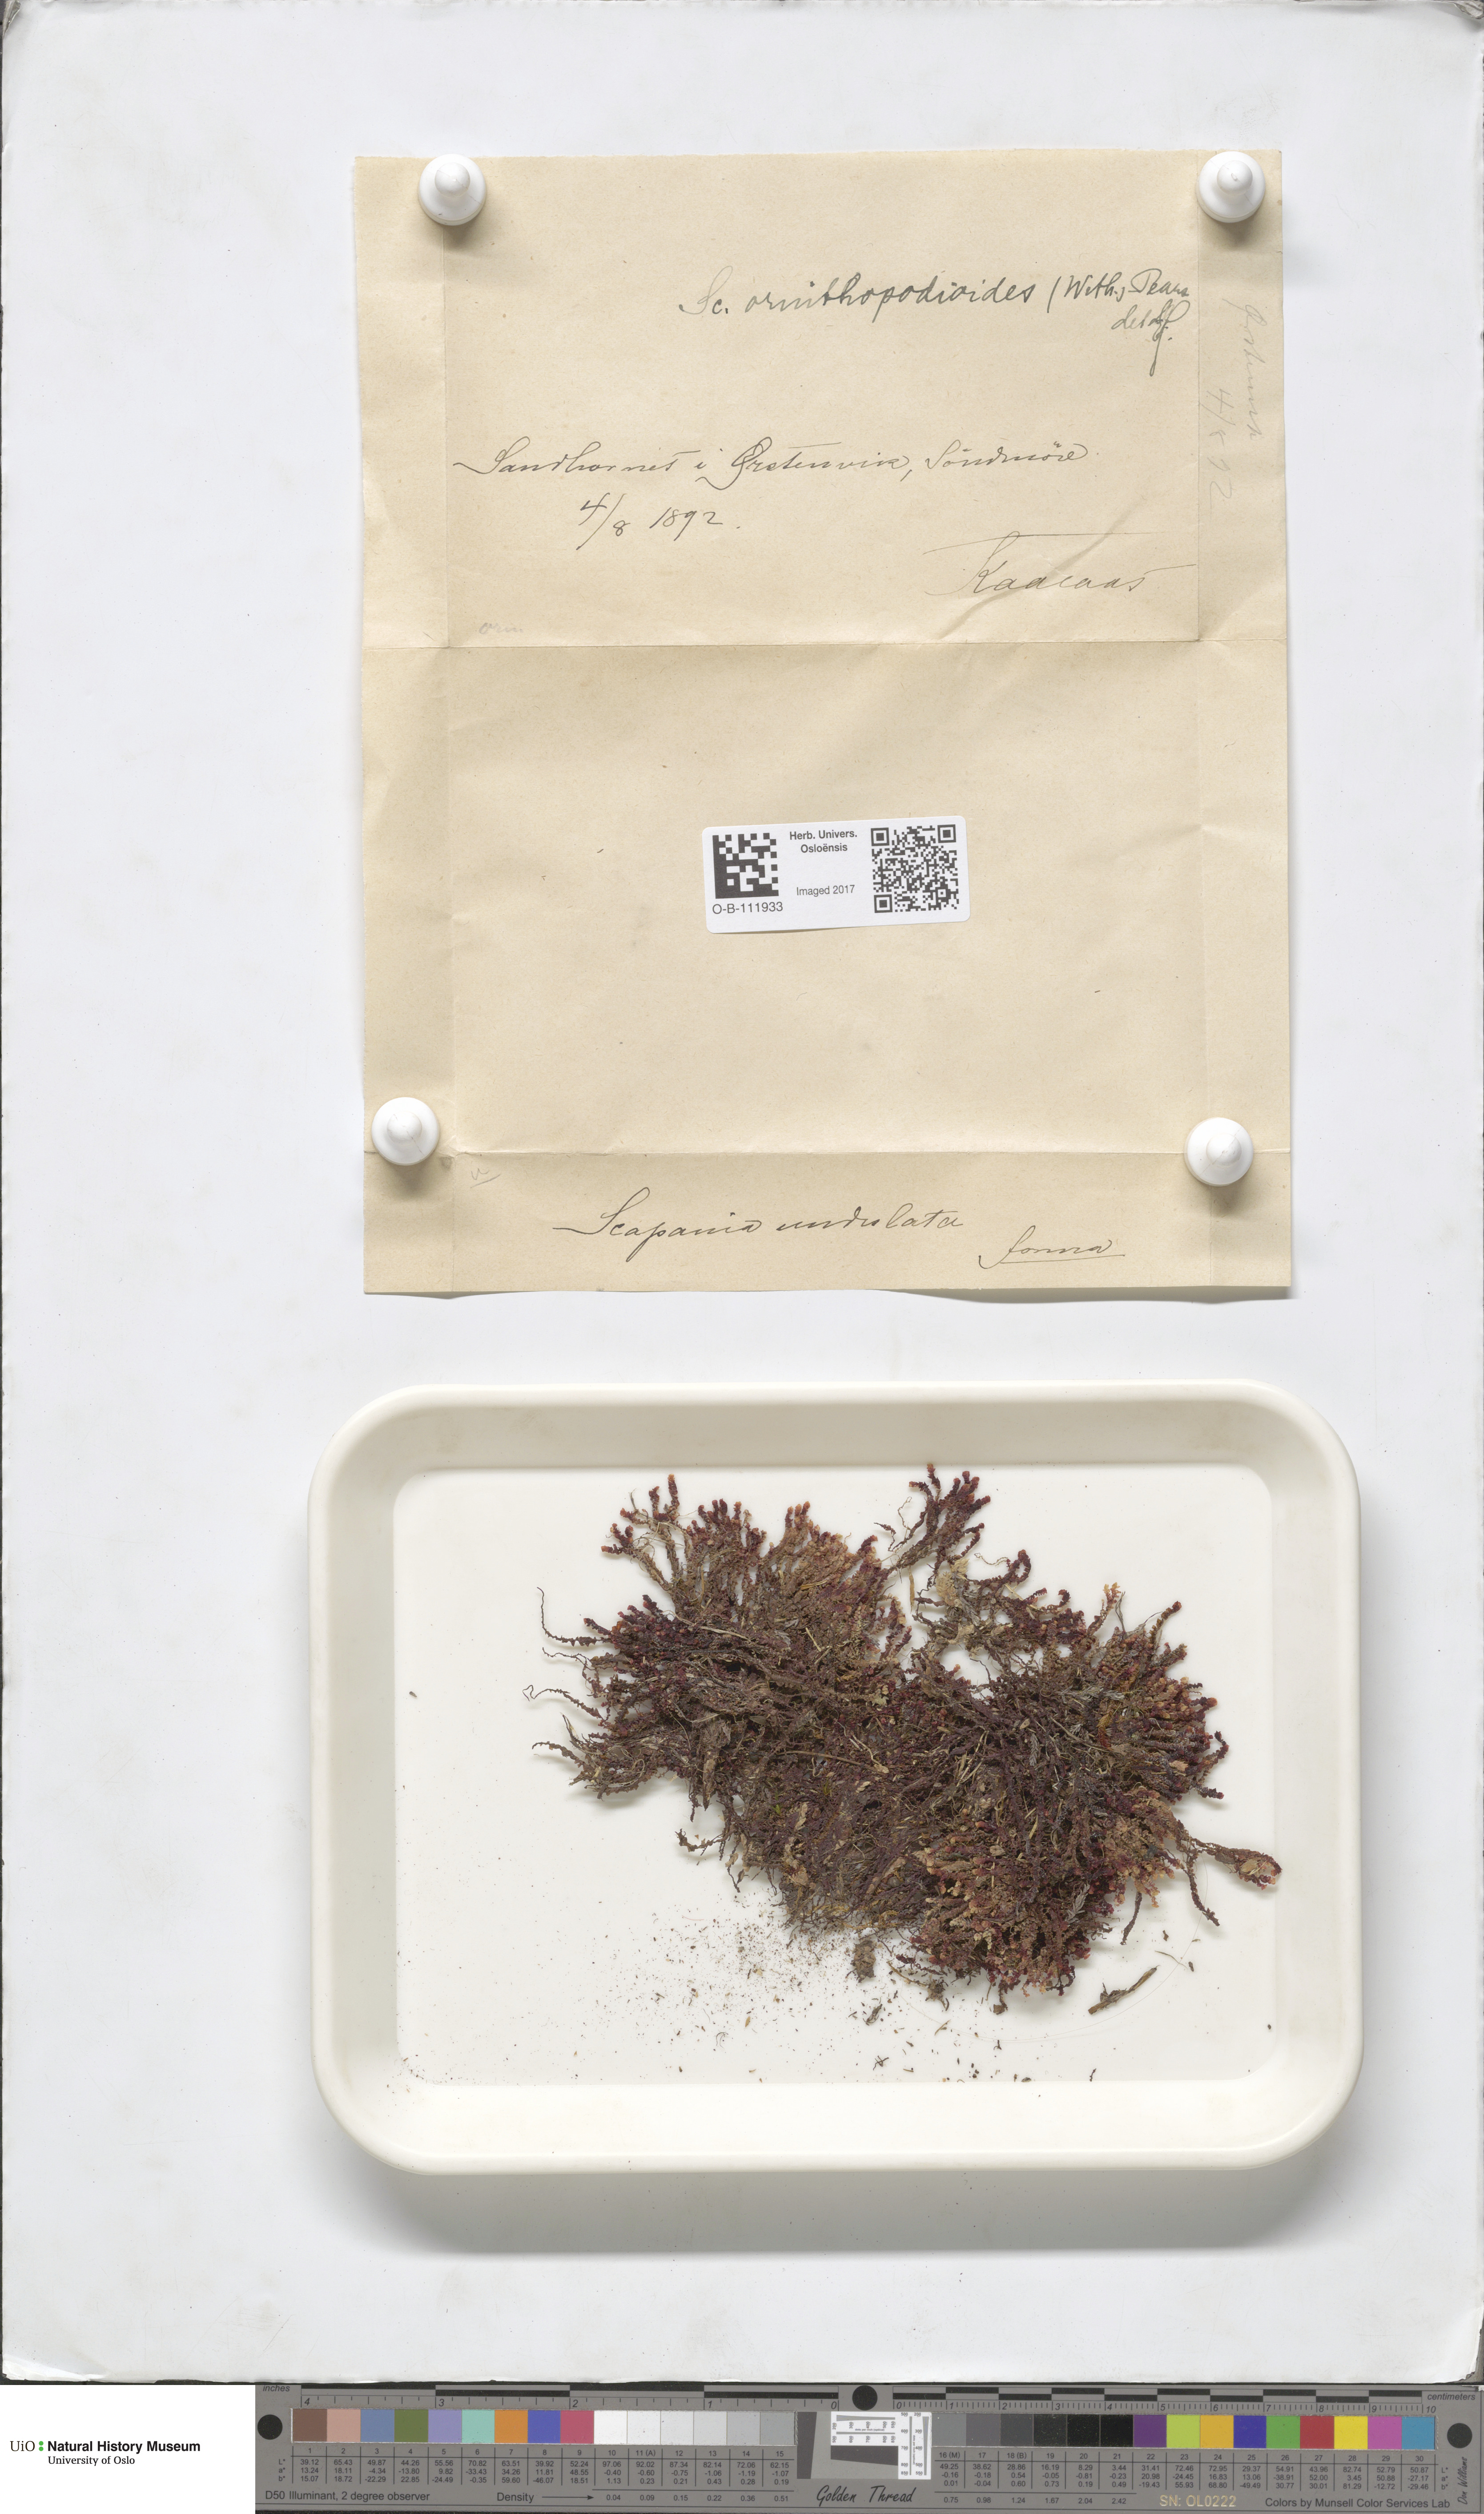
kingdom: Plantae
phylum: Marchantiophyta
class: Jungermanniopsida
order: Jungermanniales
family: Scapaniaceae
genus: Scapania
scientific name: Scapania ornithopodioides
